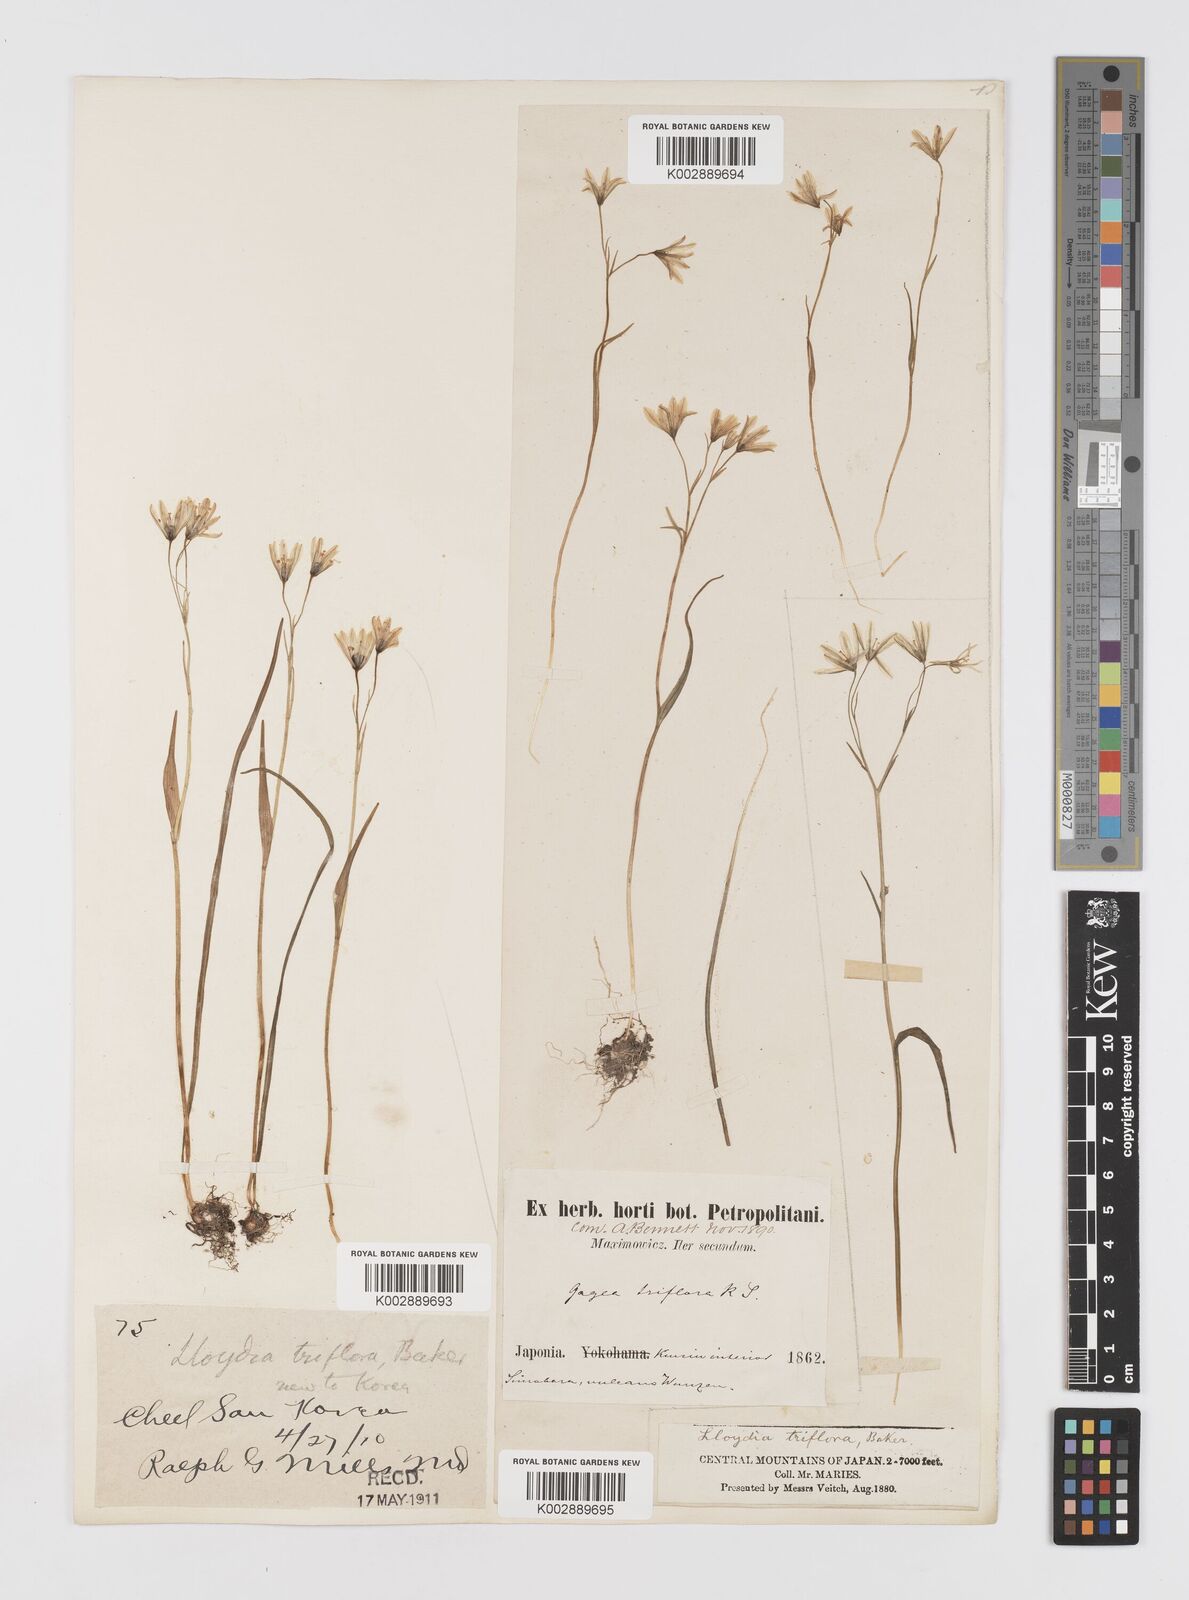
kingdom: Plantae
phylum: Tracheophyta
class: Liliopsida
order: Liliales
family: Liliaceae
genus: Gagea
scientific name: Gagea triflora
